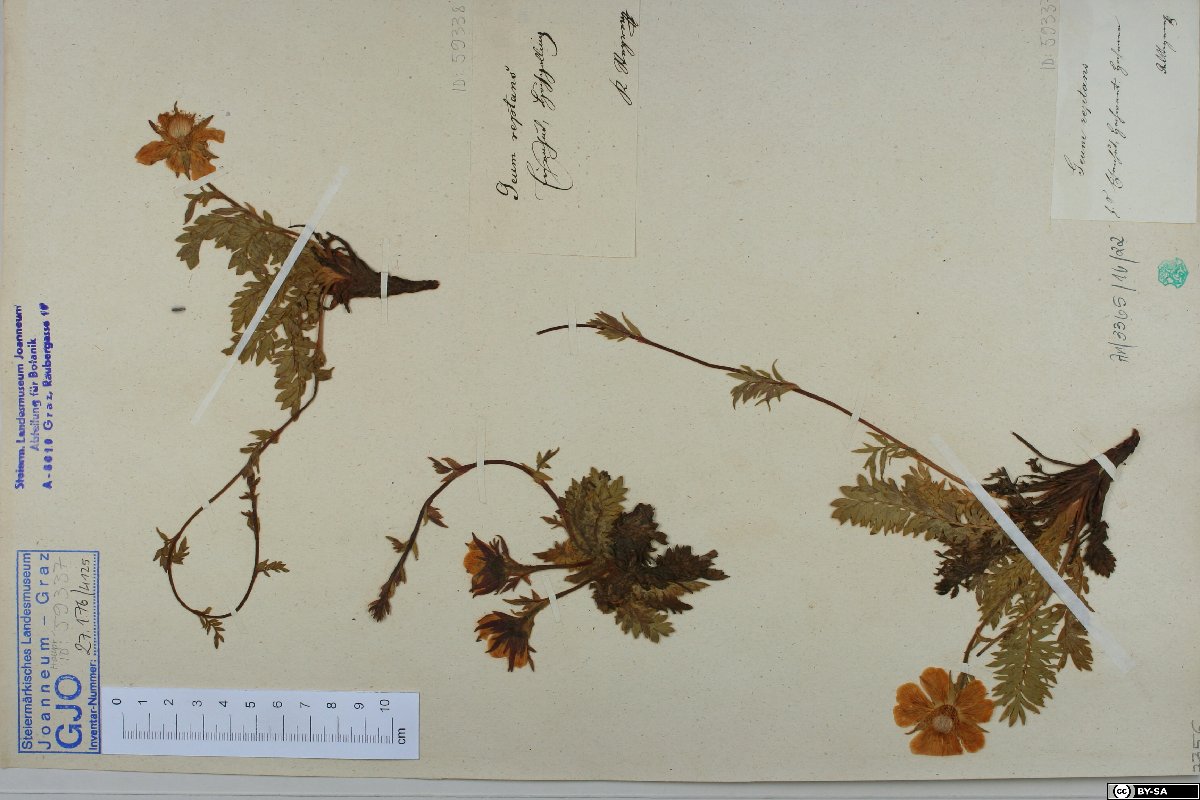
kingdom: Plantae
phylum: Tracheophyta
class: Magnoliopsida
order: Rosales
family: Rosaceae
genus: Geum
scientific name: Geum reptans
